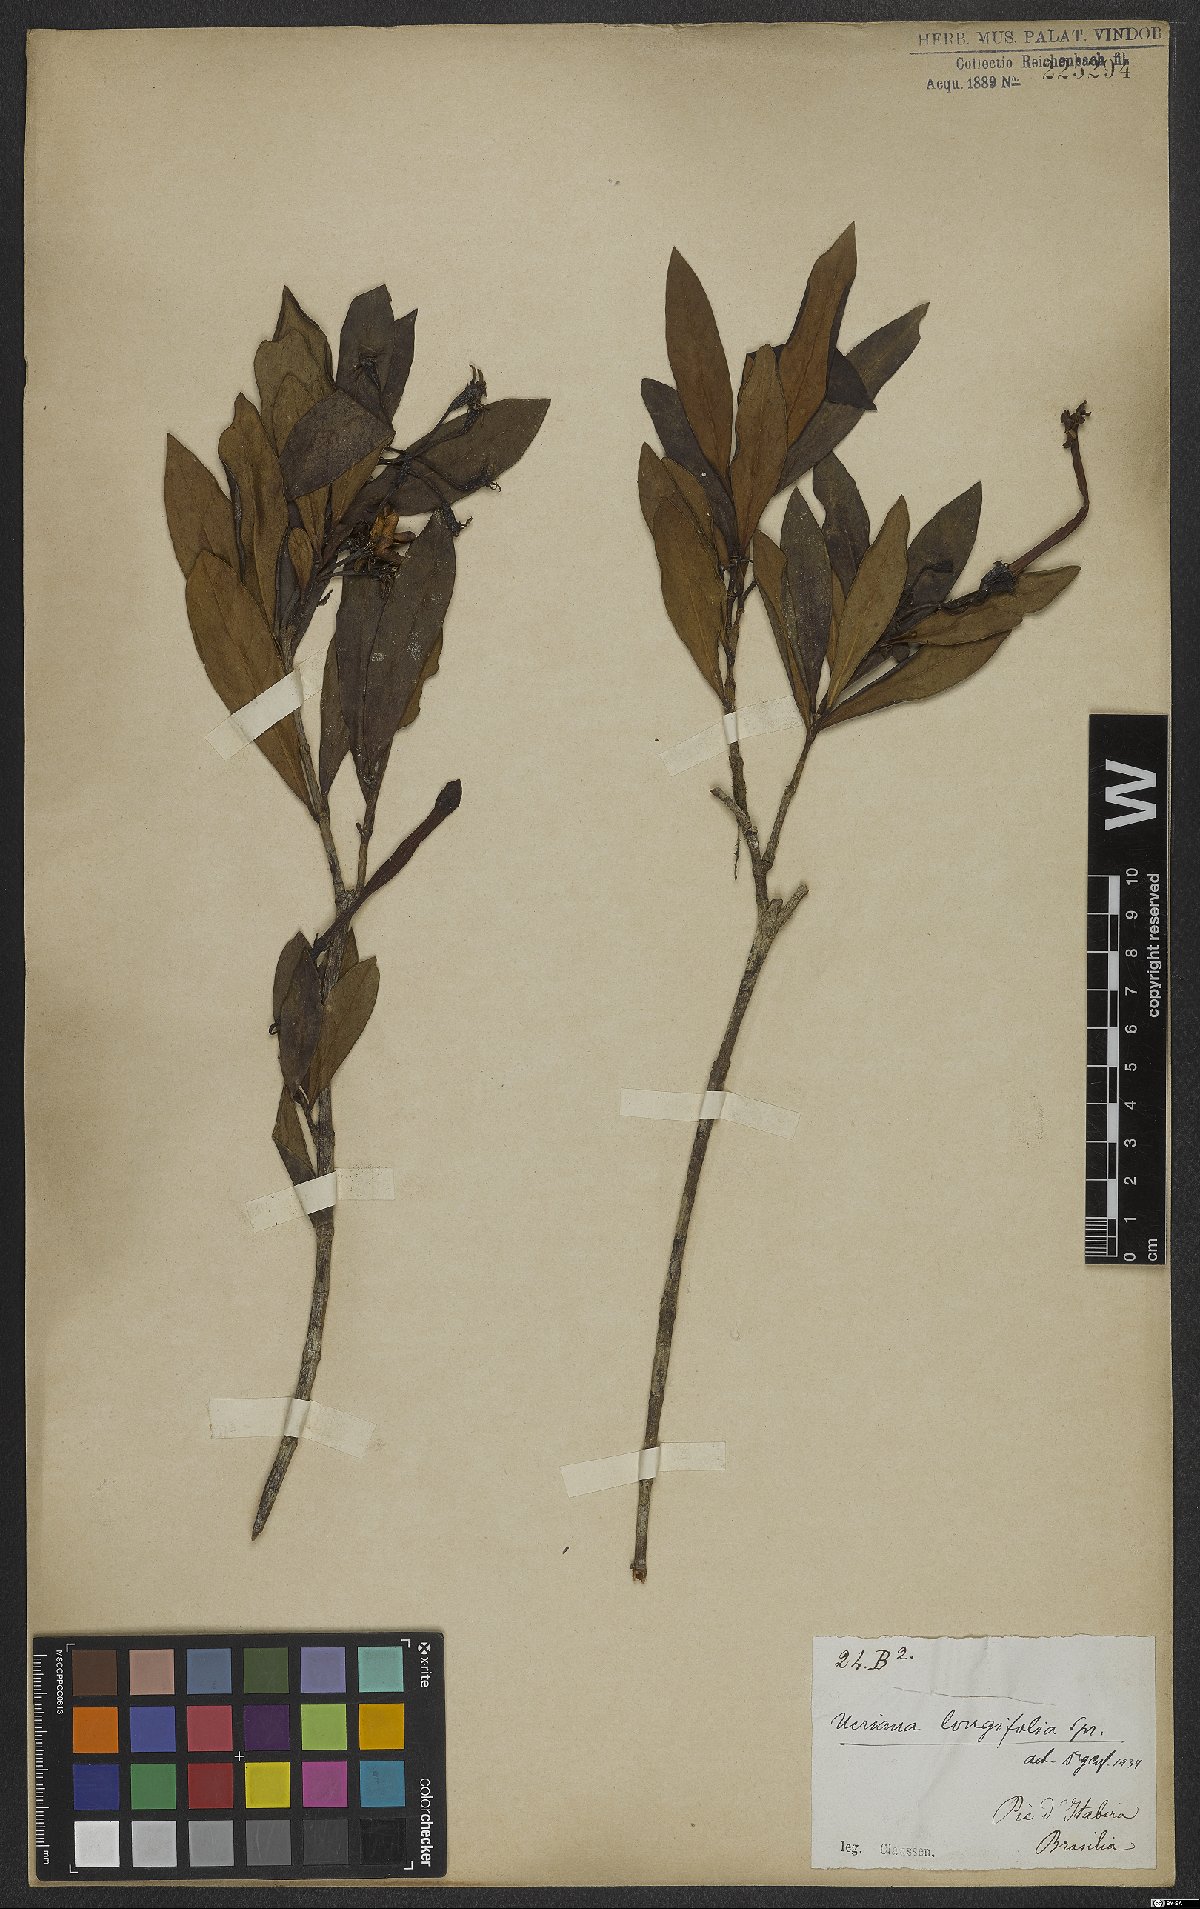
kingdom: Plantae
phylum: Tracheophyta
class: Magnoliopsida
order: Gentianales
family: Rubiaceae
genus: Augusta
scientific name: Augusta longifolia
